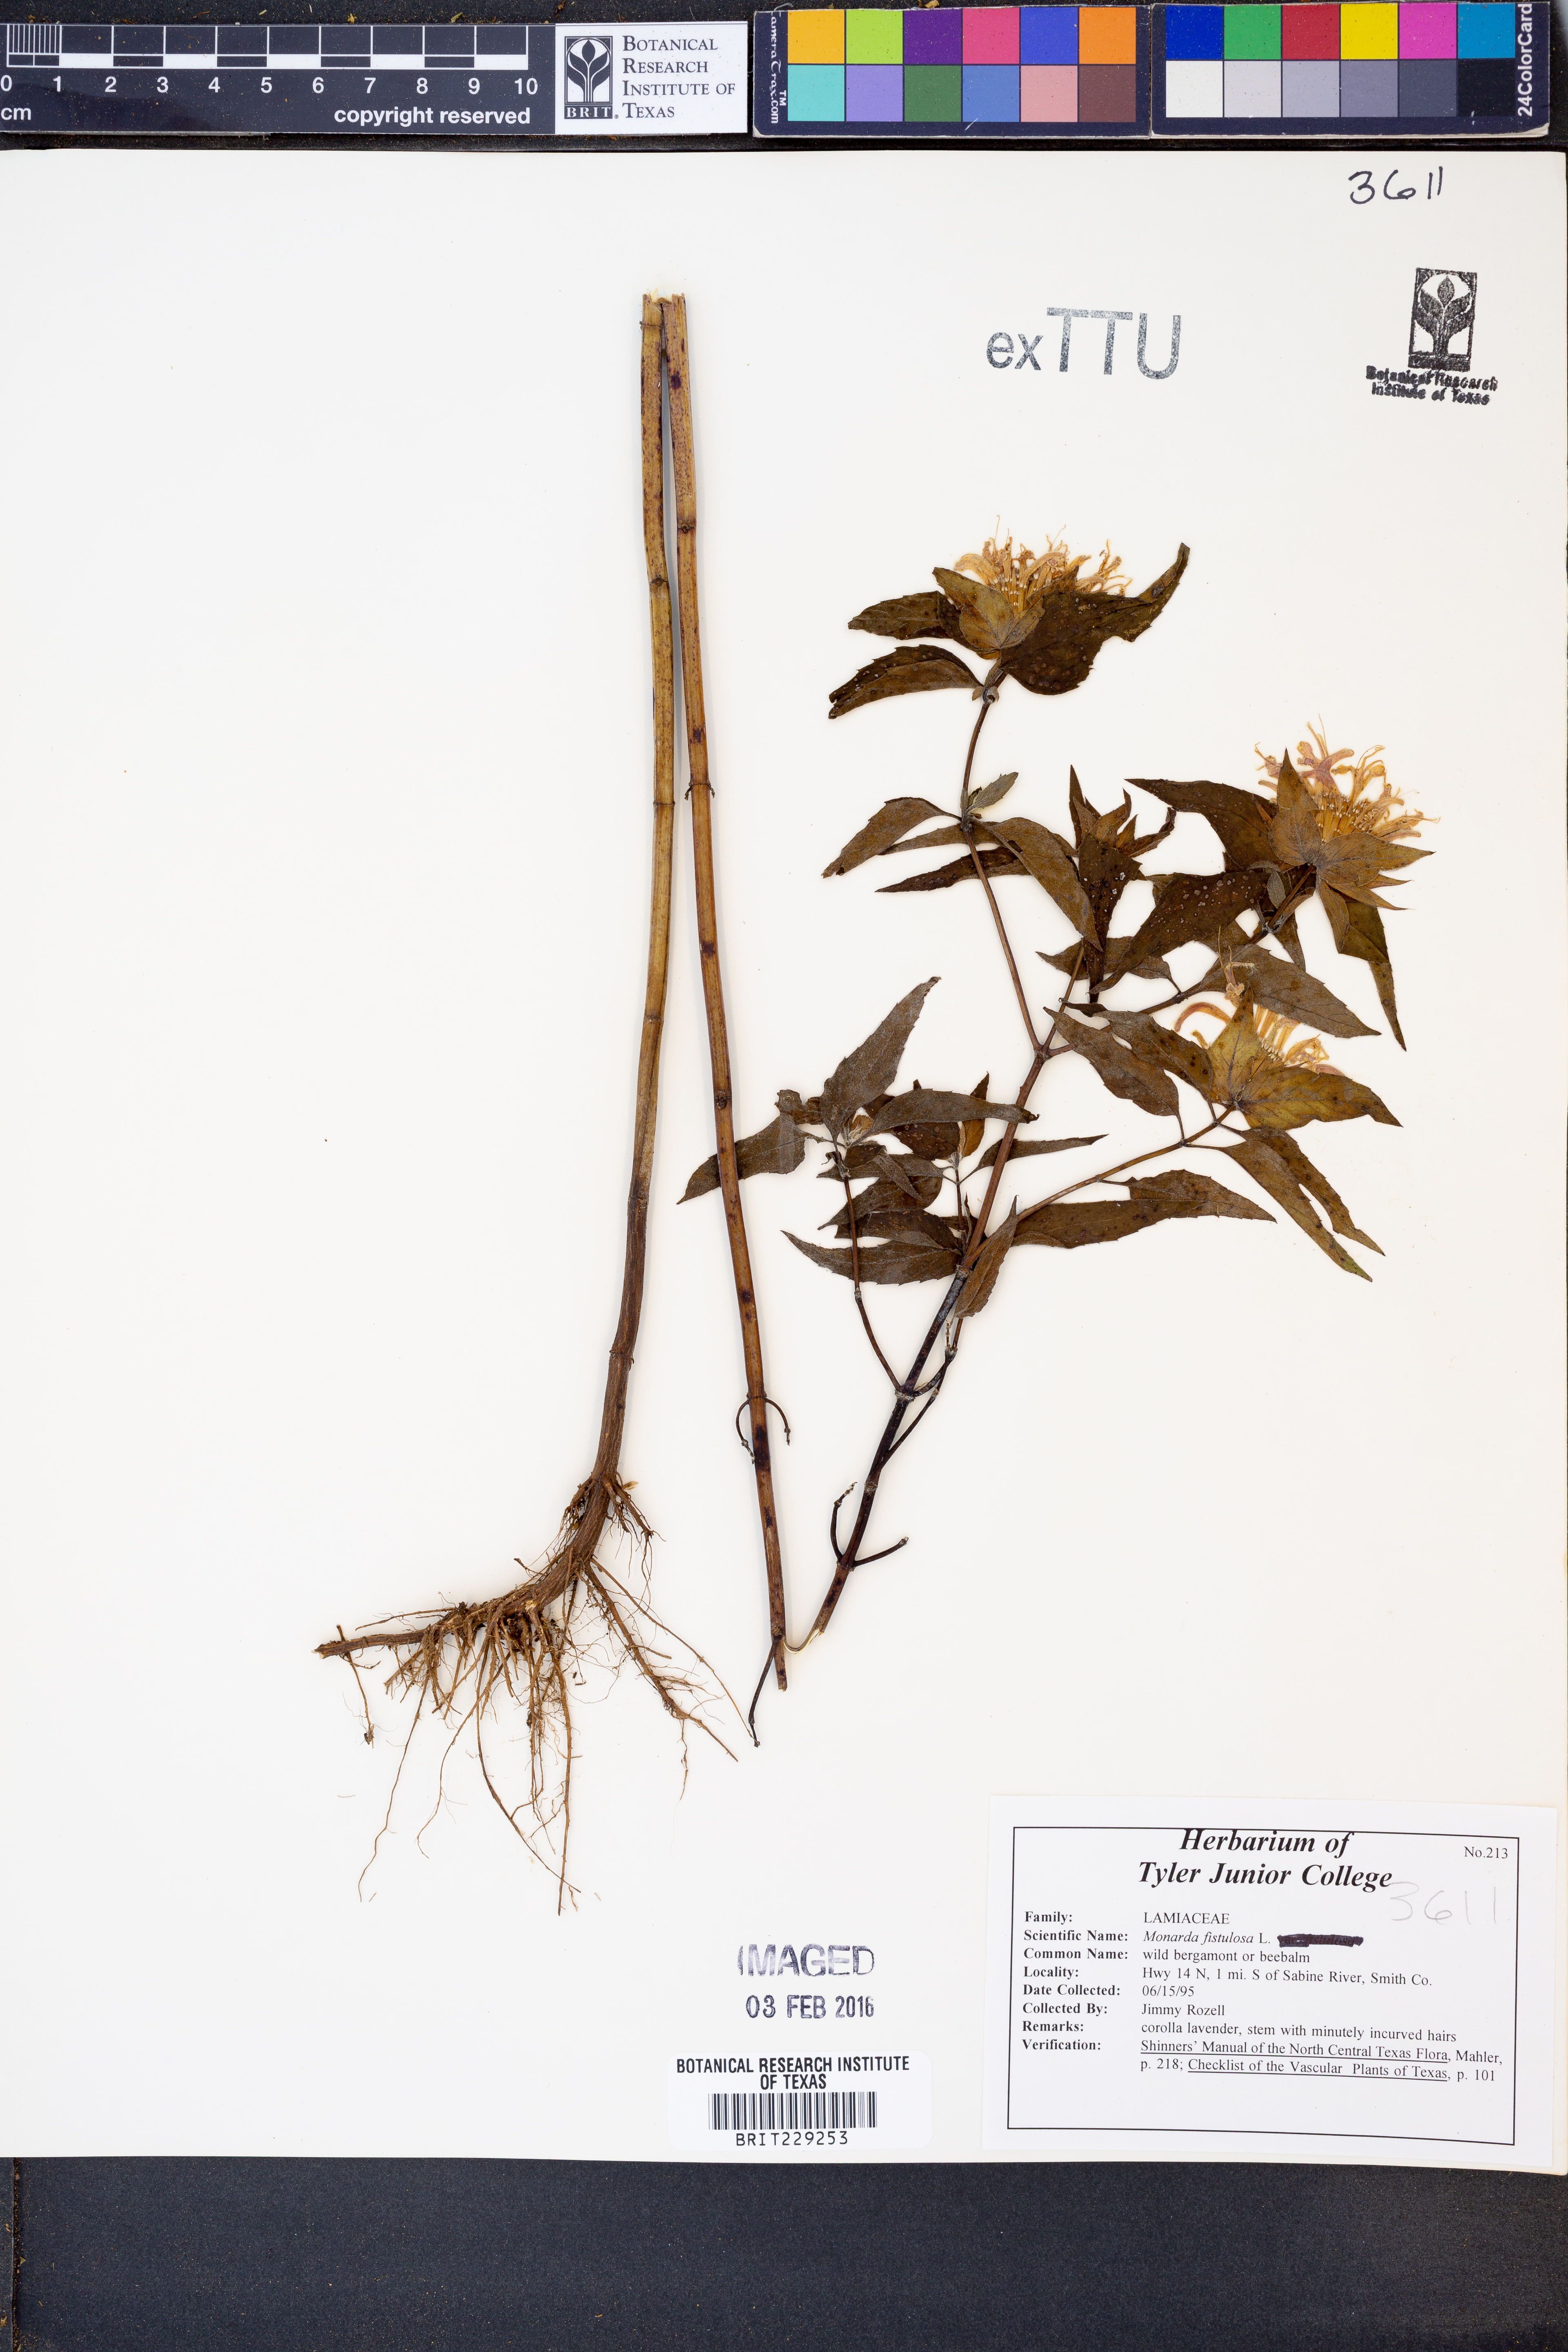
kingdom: Plantae
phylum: Tracheophyta
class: Magnoliopsida
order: Lamiales
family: Lamiaceae
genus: Monarda
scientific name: Monarda fistulosa
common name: Purple beebalm
